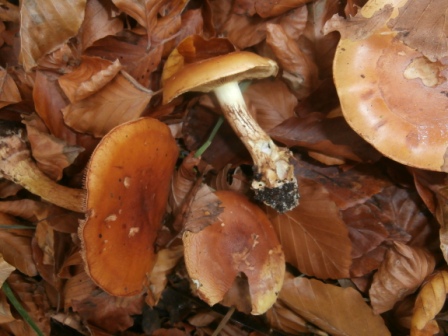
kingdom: Fungi
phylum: Basidiomycota
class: Agaricomycetes
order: Agaricales
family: Cortinariaceae
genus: Calonarius
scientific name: Calonarius elegantissimus
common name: orangegylden slørhat
